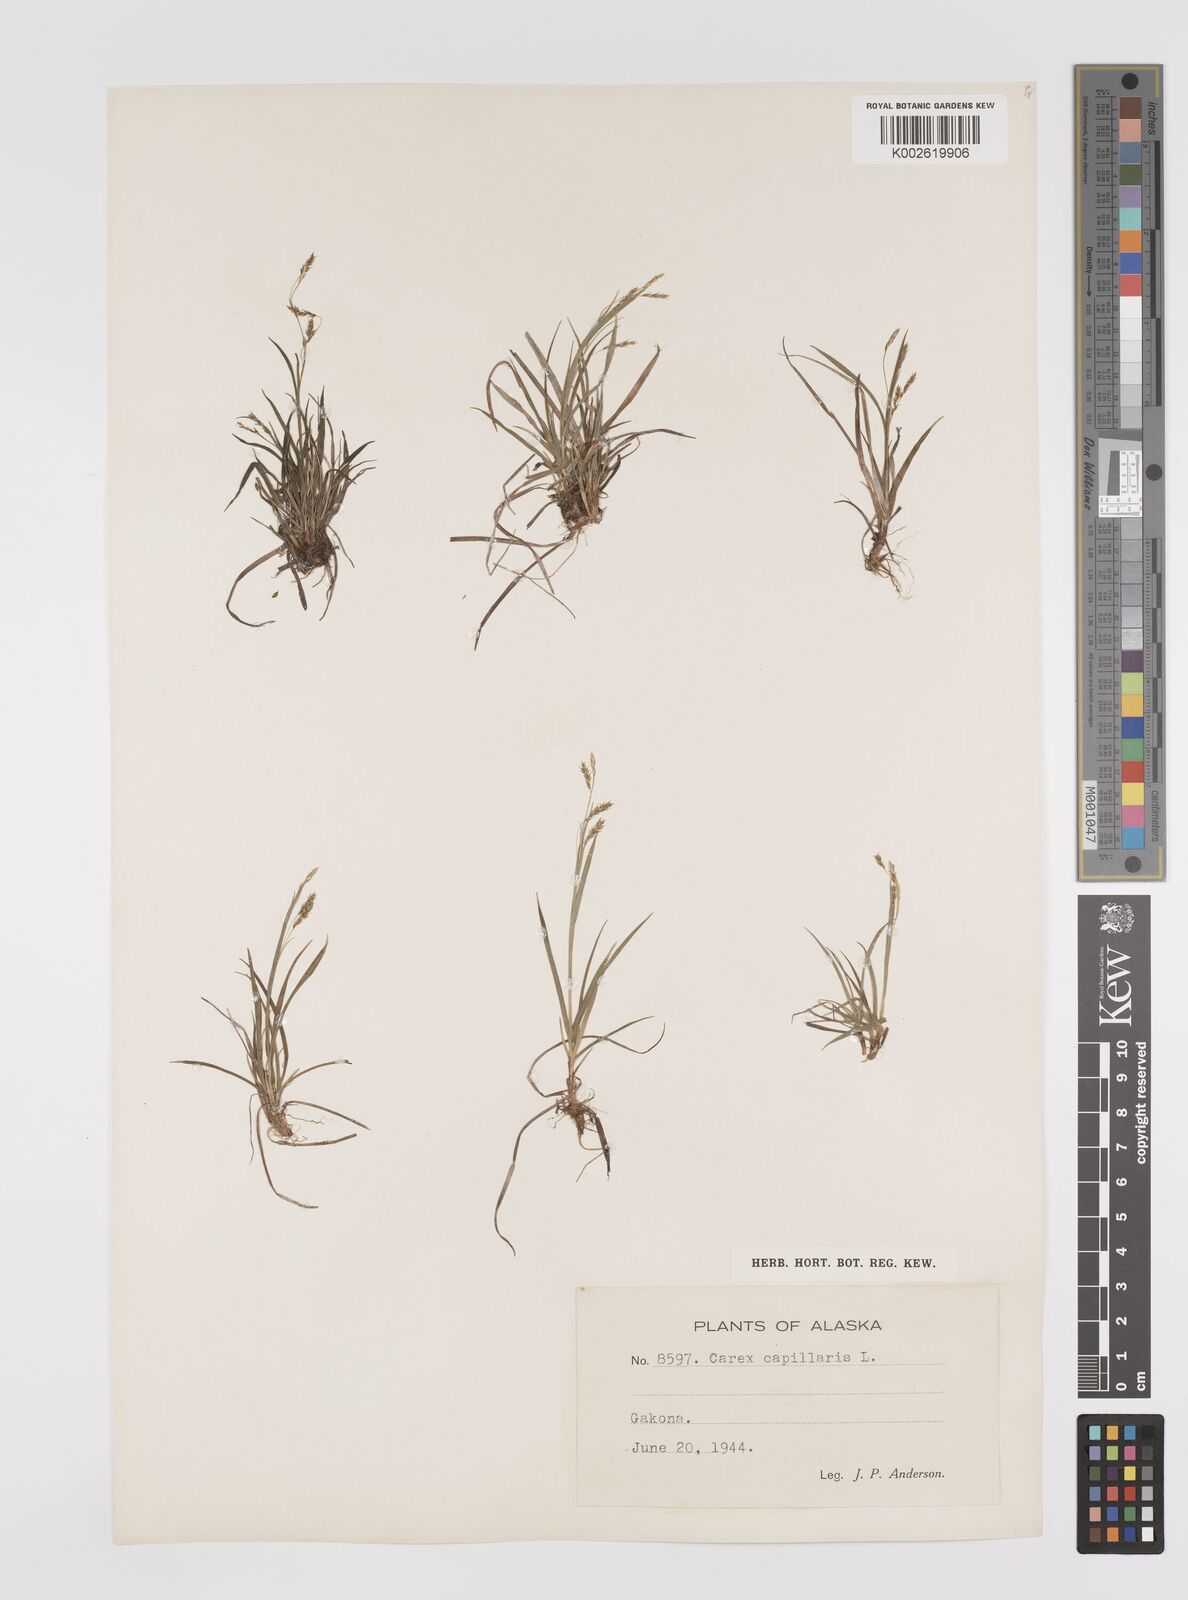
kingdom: Plantae
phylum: Tracheophyta
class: Liliopsida
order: Poales
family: Cyperaceae
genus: Carex
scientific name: Carex capillaris
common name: Hair sedge
